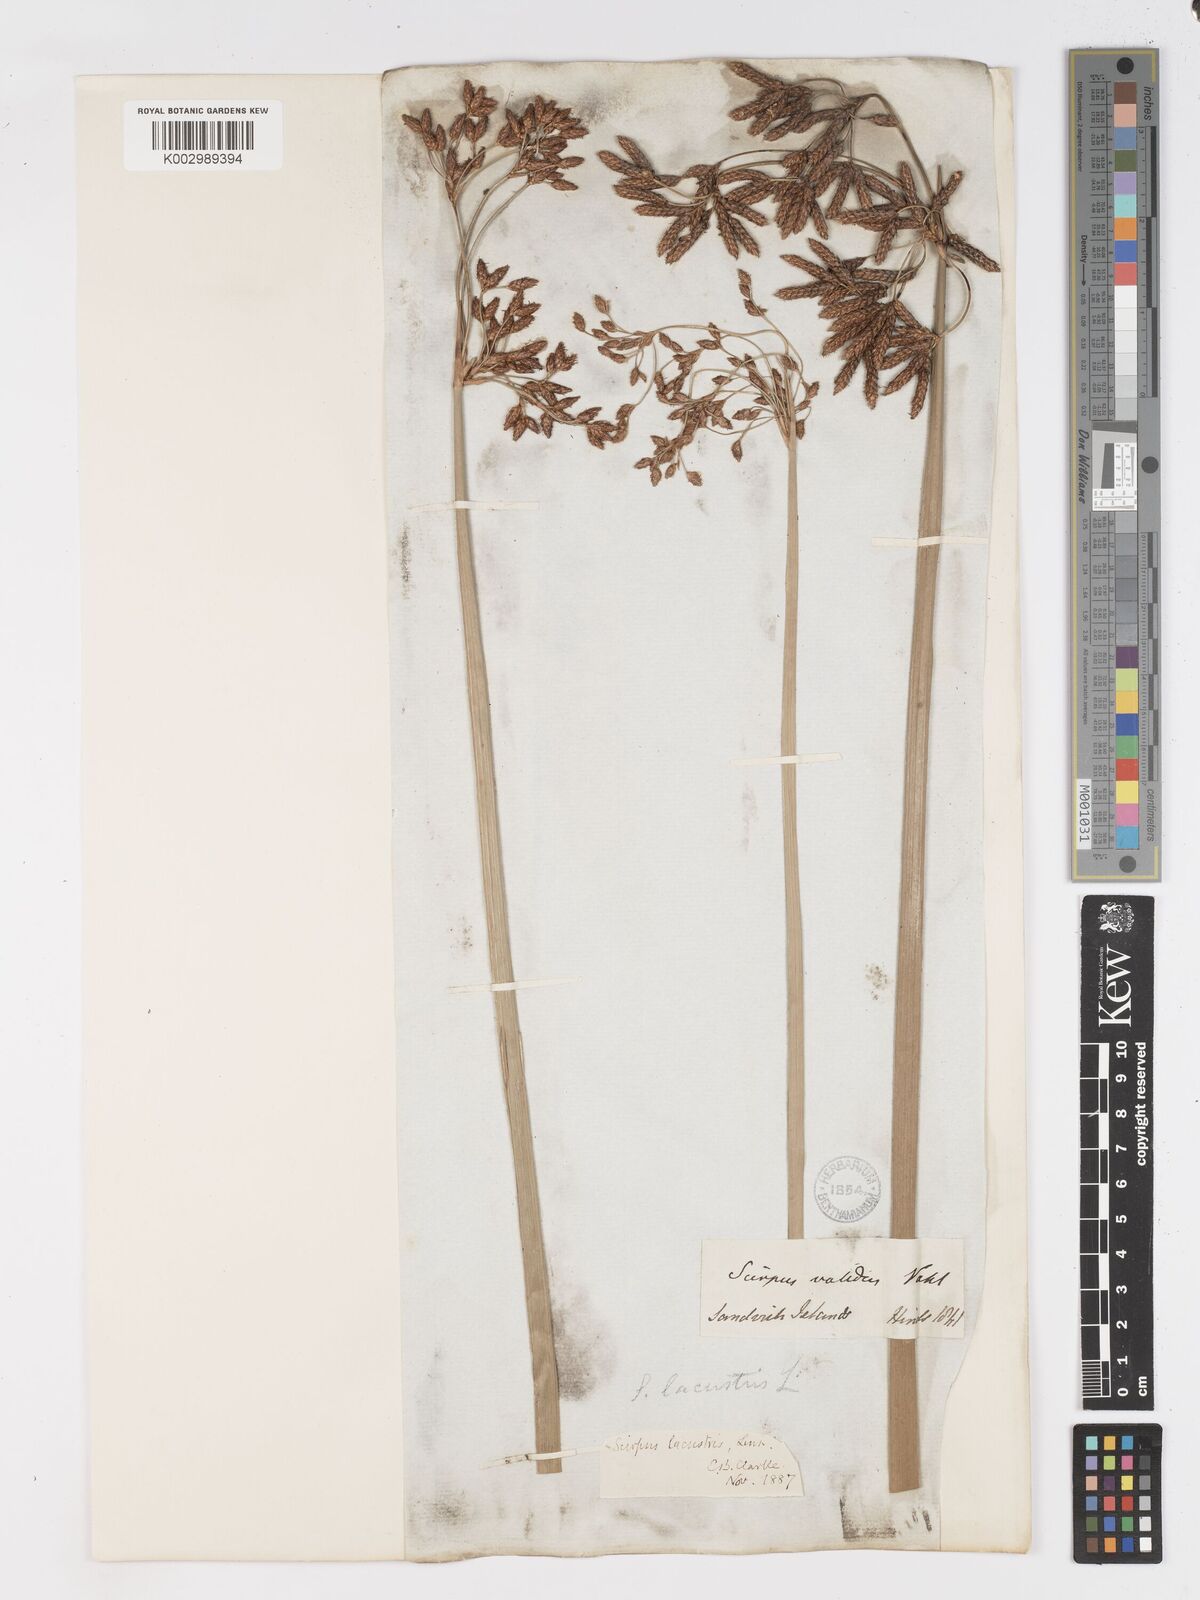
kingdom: Plantae
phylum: Tracheophyta
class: Liliopsida
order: Poales
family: Cyperaceae
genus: Schoenoplectus
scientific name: Schoenoplectus californicus
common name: California bulrush
